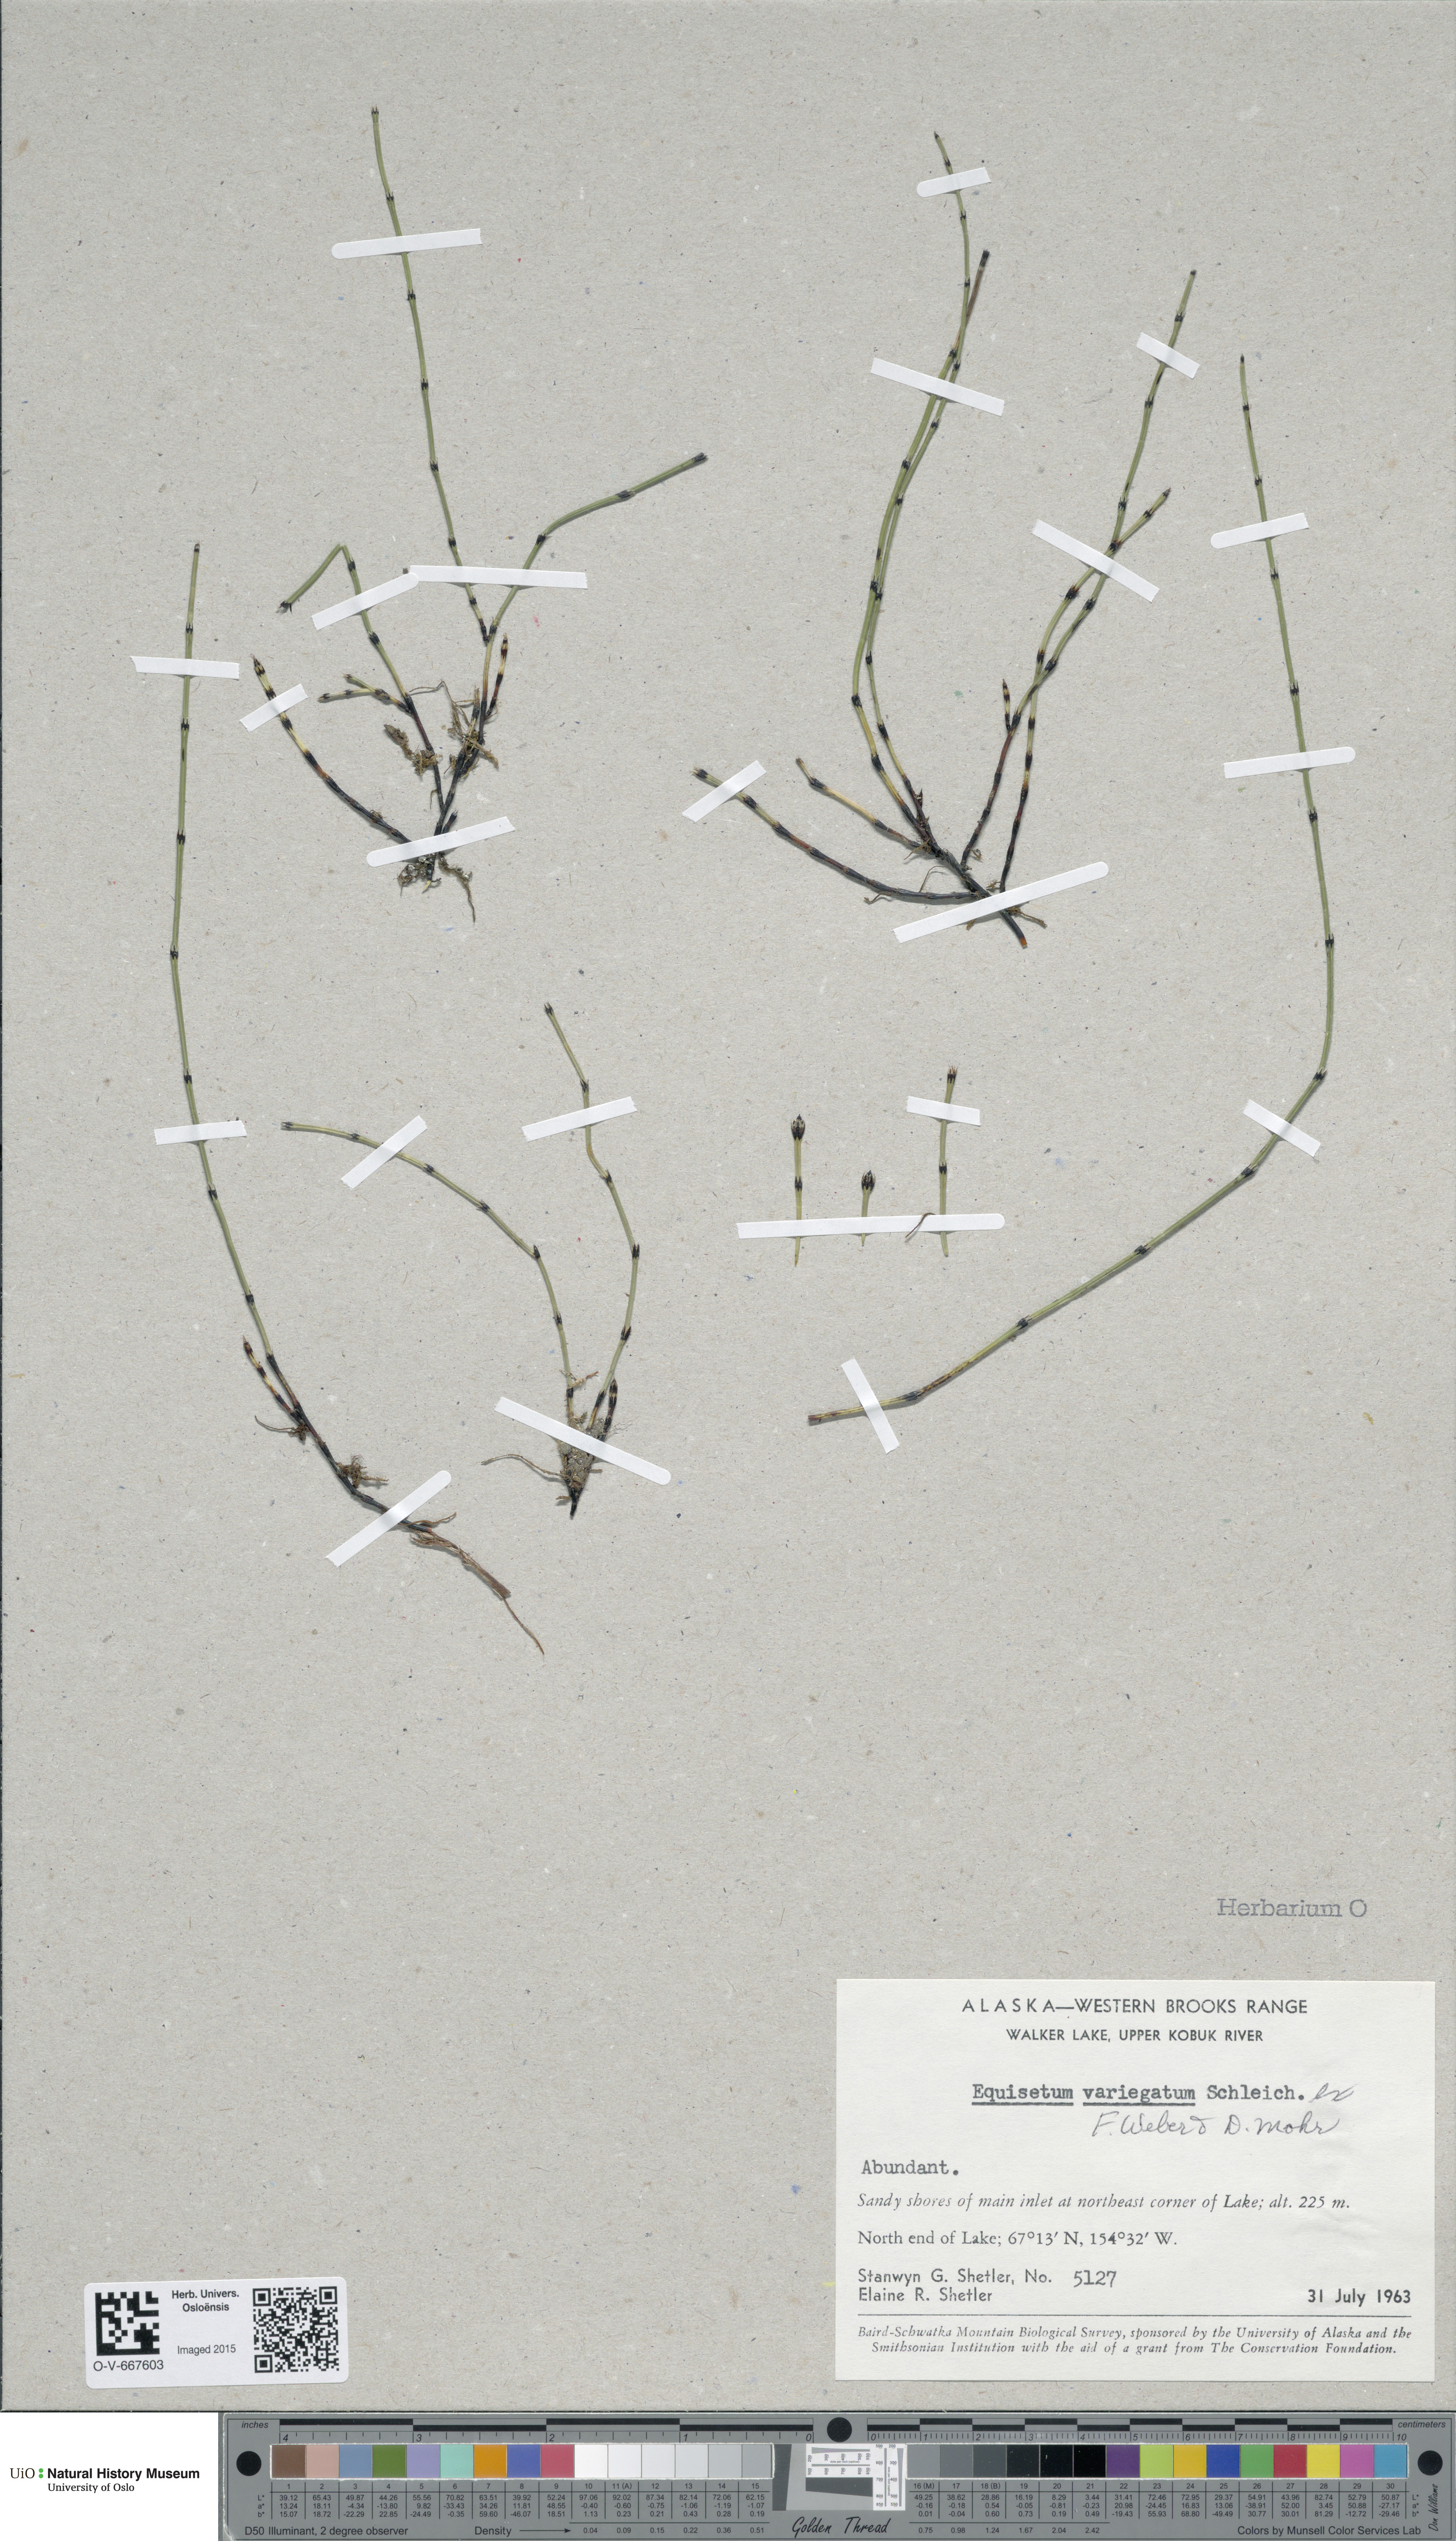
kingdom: Plantae
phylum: Tracheophyta
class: Polypodiopsida
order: Equisetales
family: Equisetaceae
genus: Equisetum
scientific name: Equisetum variegatum
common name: Variegated horsetail
